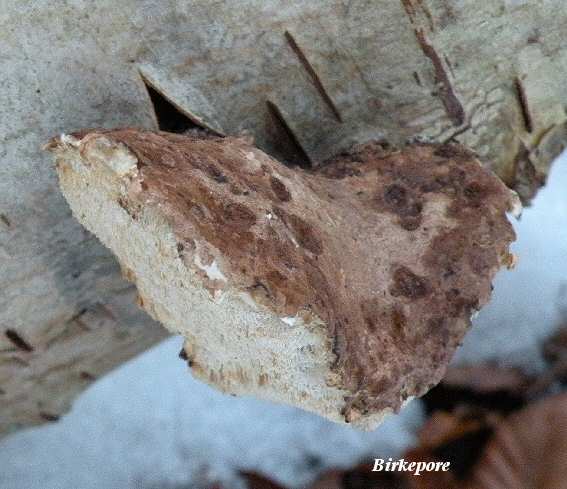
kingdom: Fungi
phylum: Basidiomycota
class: Agaricomycetes
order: Polyporales
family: Fomitopsidaceae
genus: Fomitopsis
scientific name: Fomitopsis betulina
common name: birkeporesvamp
